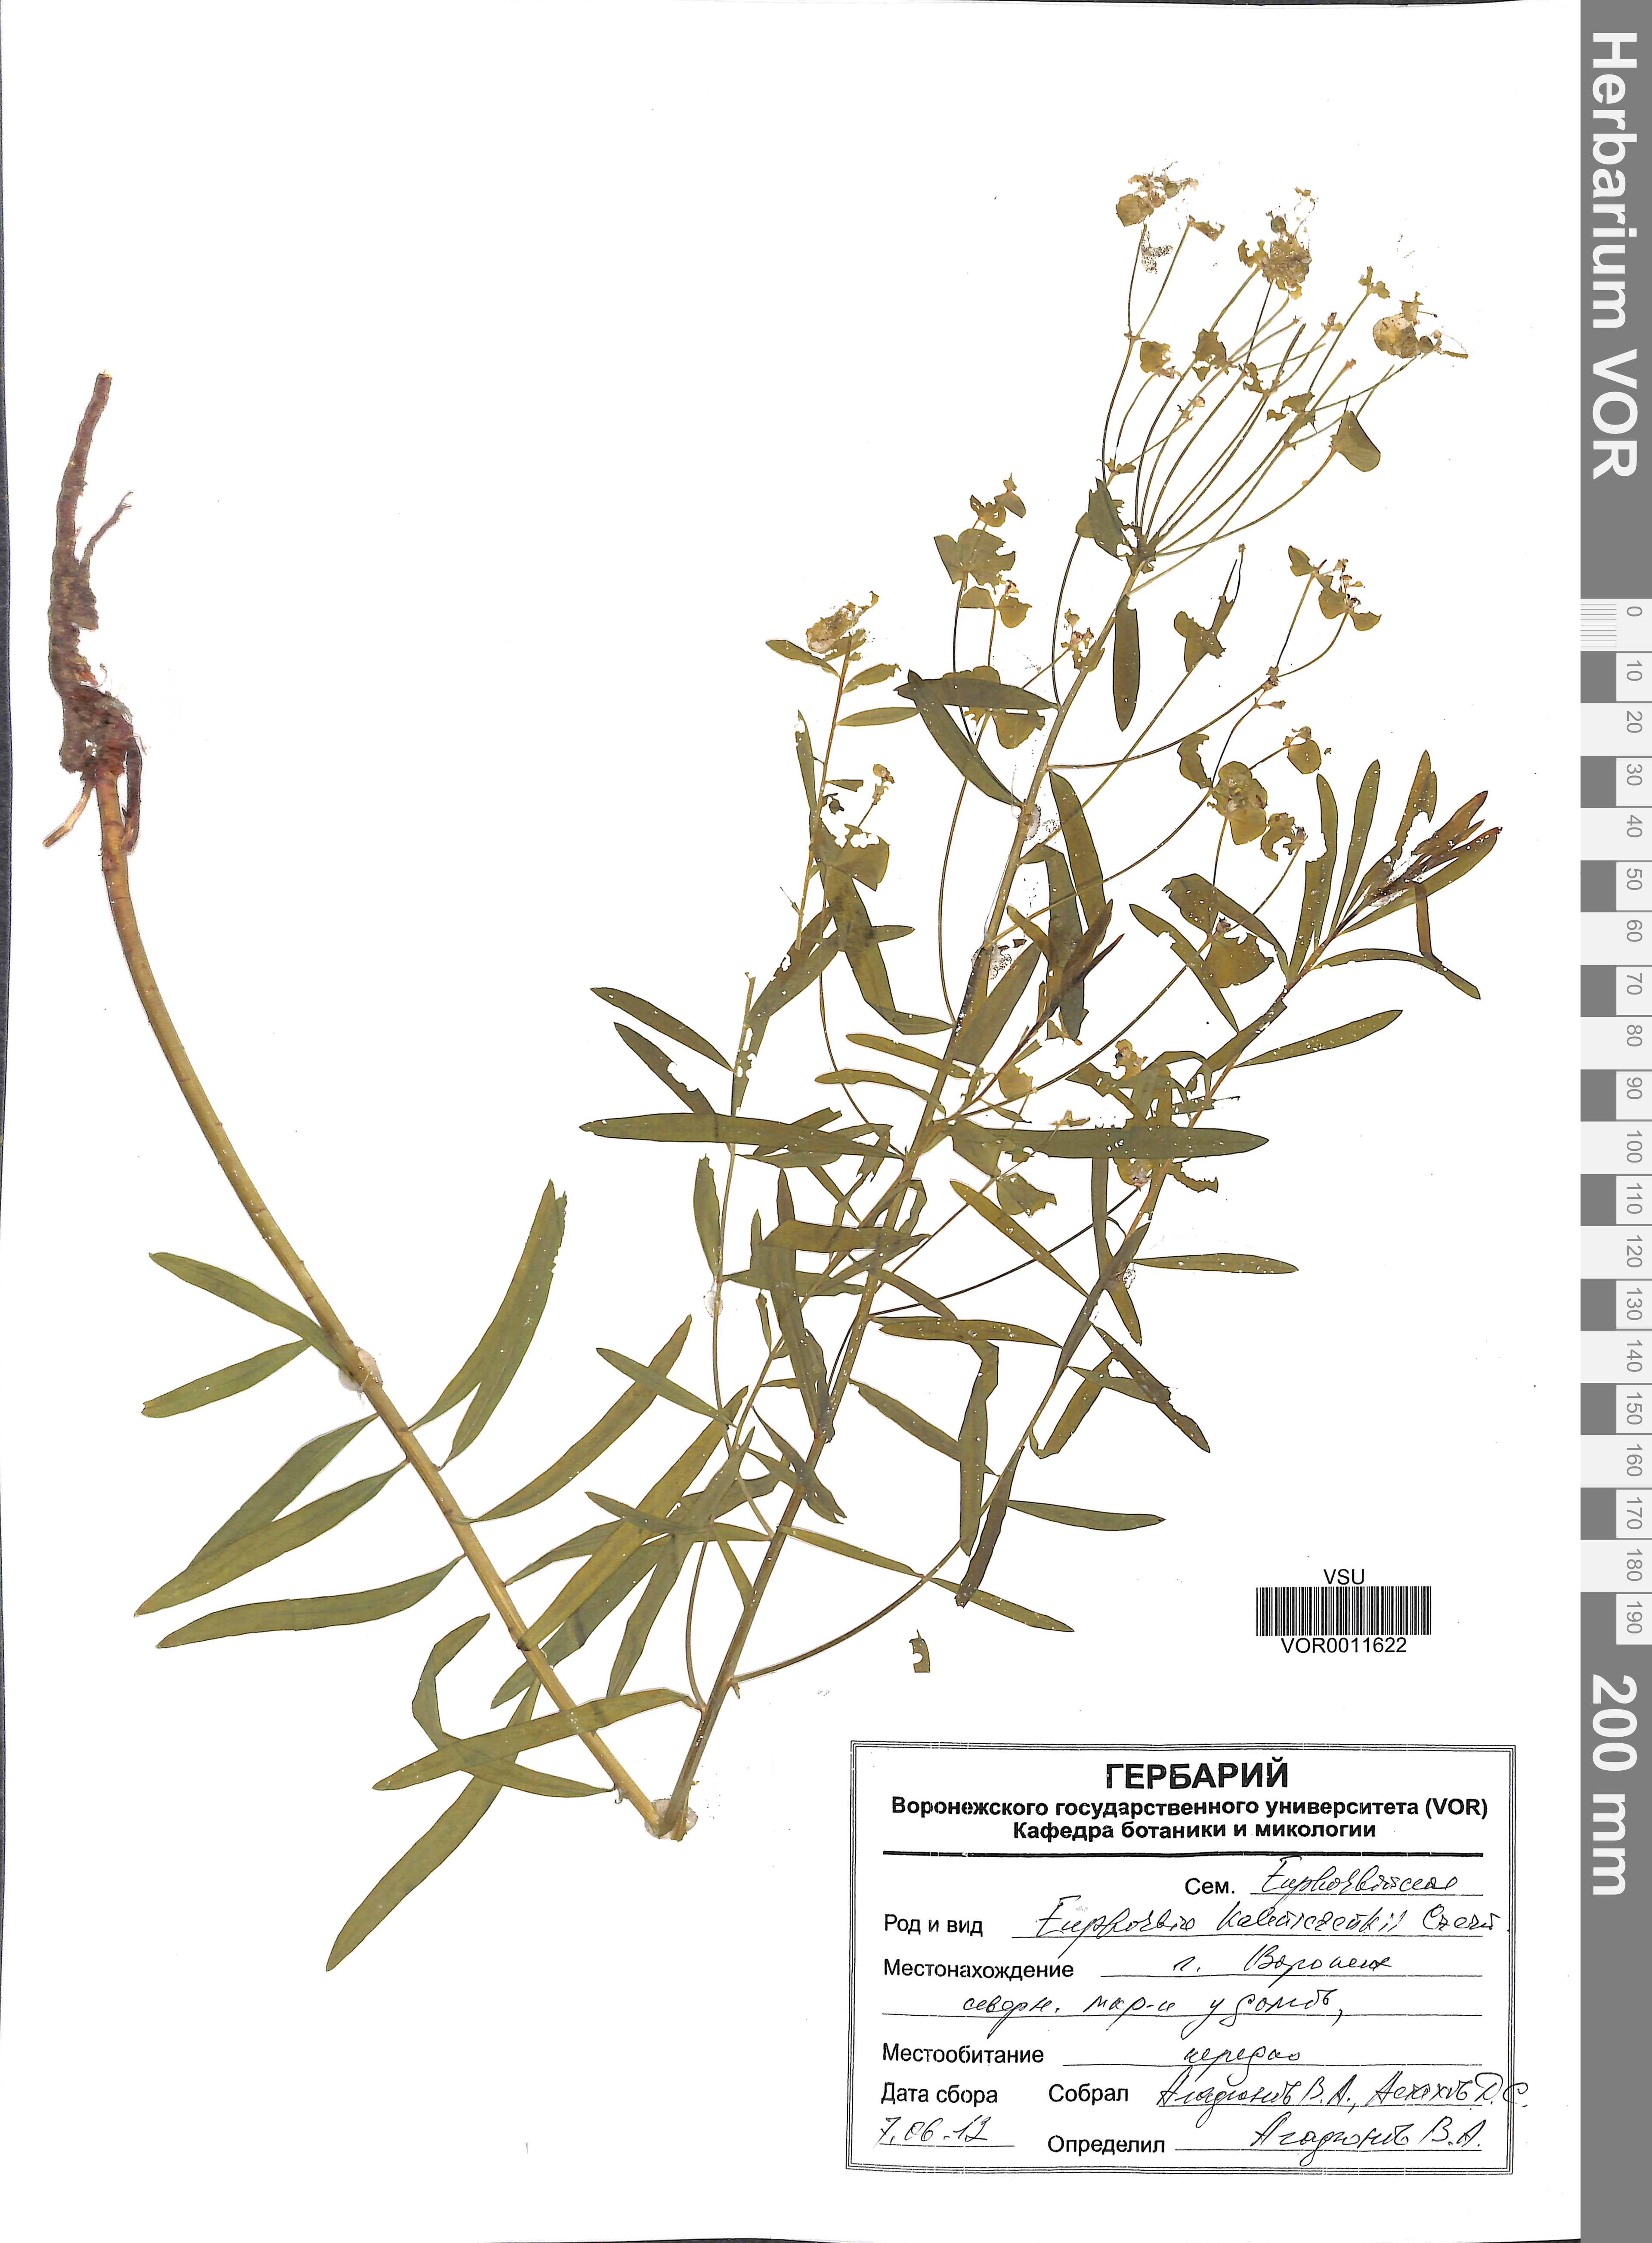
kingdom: Plantae
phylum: Tracheophyta
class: Magnoliopsida
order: Malpighiales
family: Euphorbiaceae
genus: Euphorbia
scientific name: Euphorbia esula
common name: Leafy spurge
